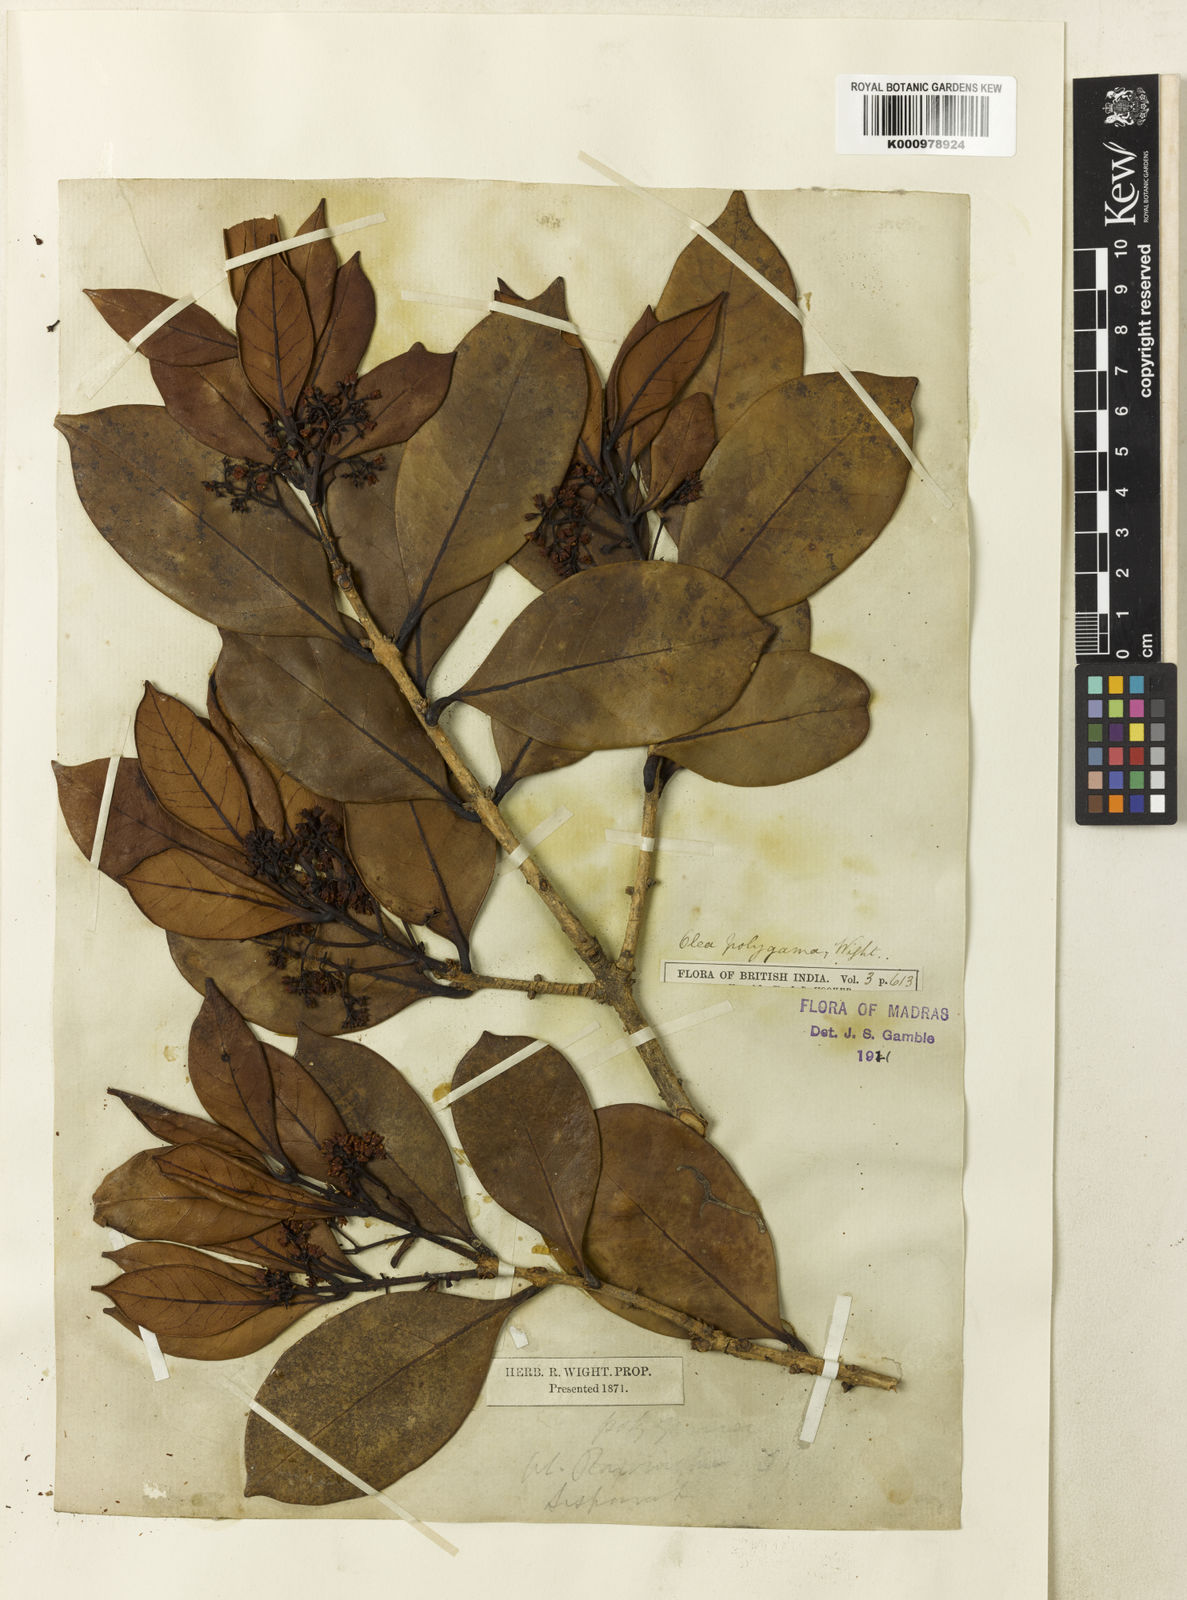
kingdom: Plantae
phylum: Tracheophyta
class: Magnoliopsida
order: Lamiales
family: Oleaceae
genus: Tetrapilus
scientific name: Tetrapilus polygamus
